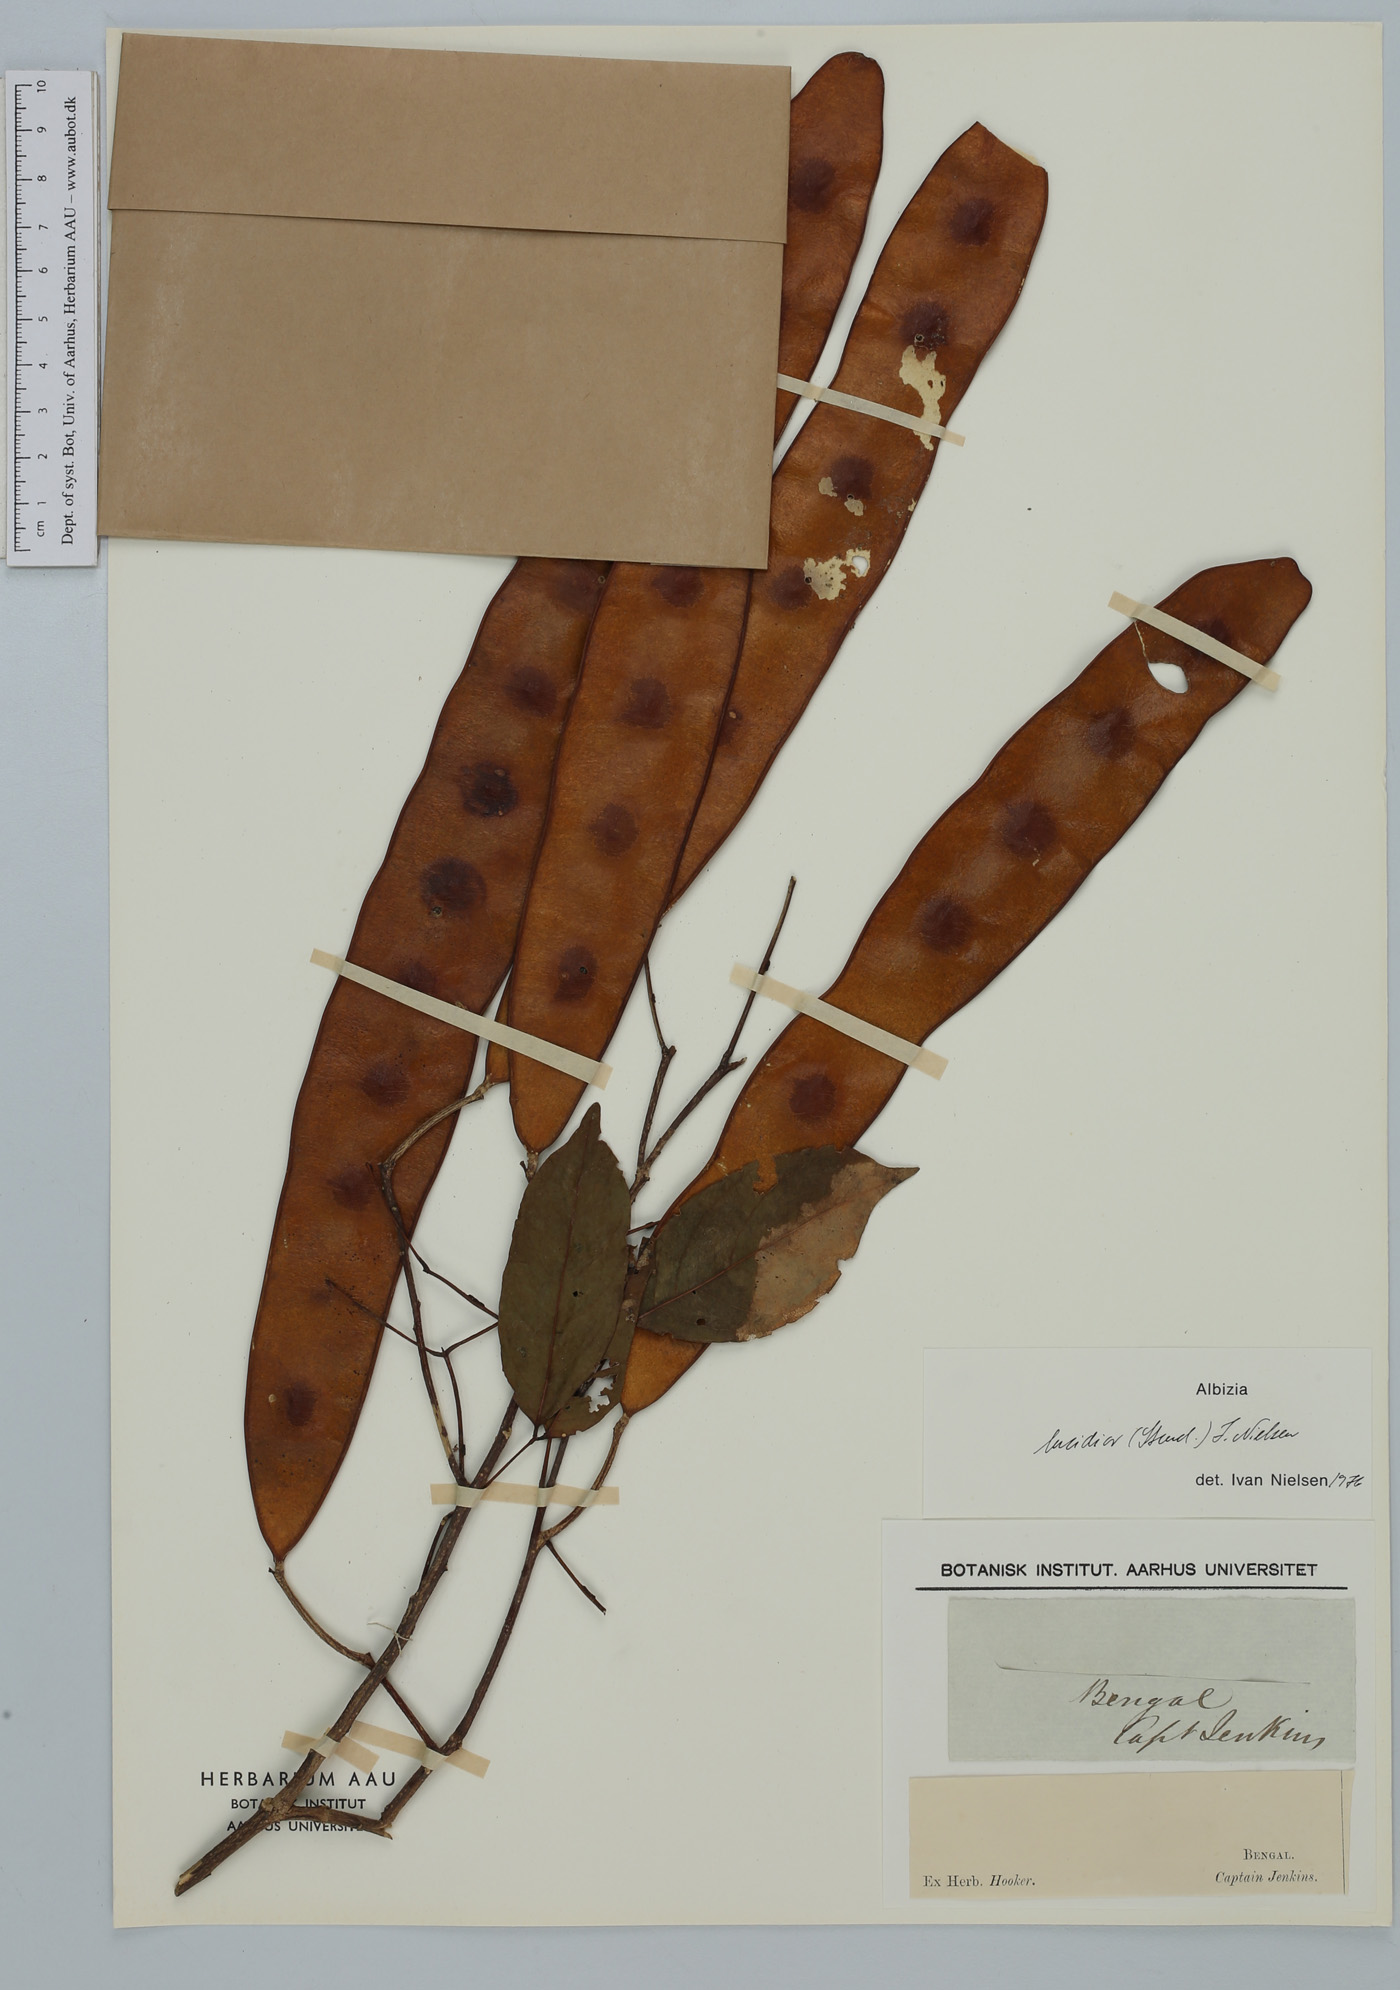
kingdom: Plantae
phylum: Tracheophyta
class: Magnoliopsida
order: Fabales
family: Fabaceae
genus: Albizia
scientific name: Albizia lucidior
